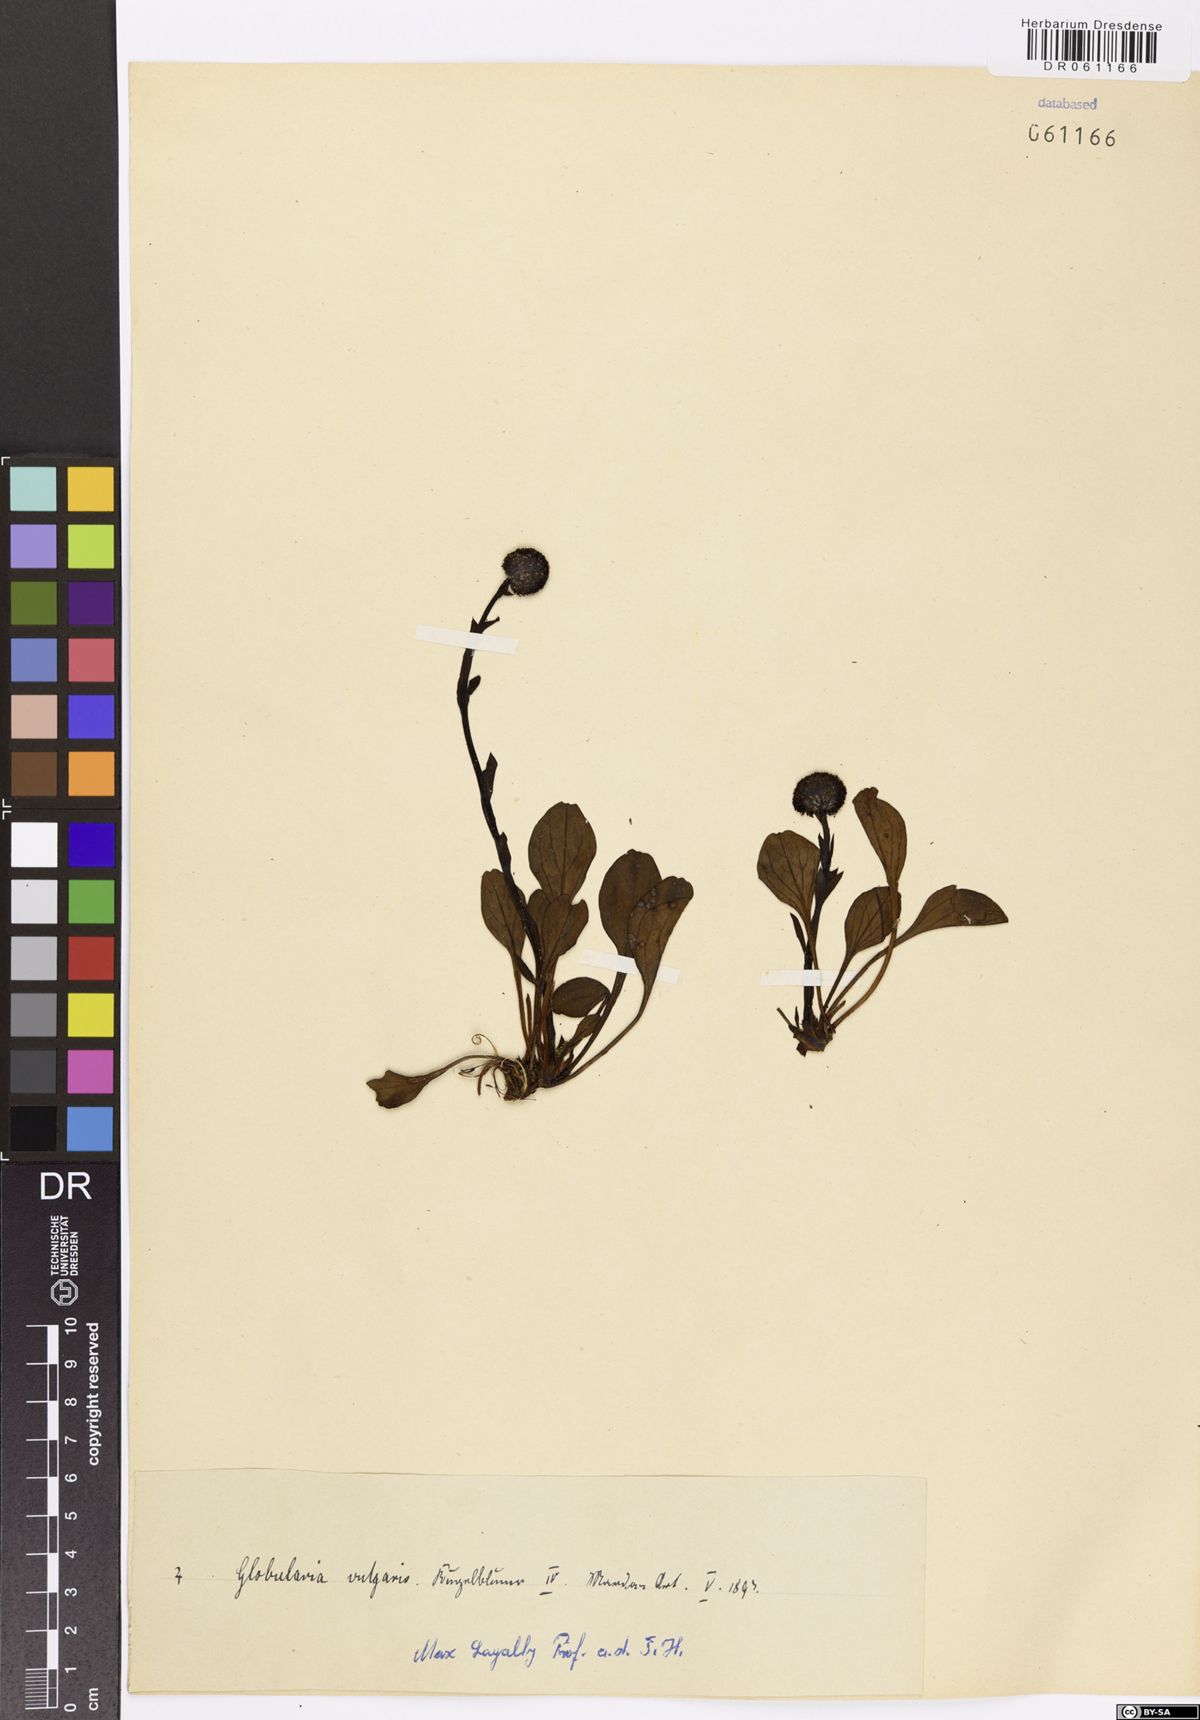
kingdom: Plantae
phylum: Tracheophyta
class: Magnoliopsida
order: Lamiales
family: Plantaginaceae
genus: Globularia
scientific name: Globularia vulgaris
